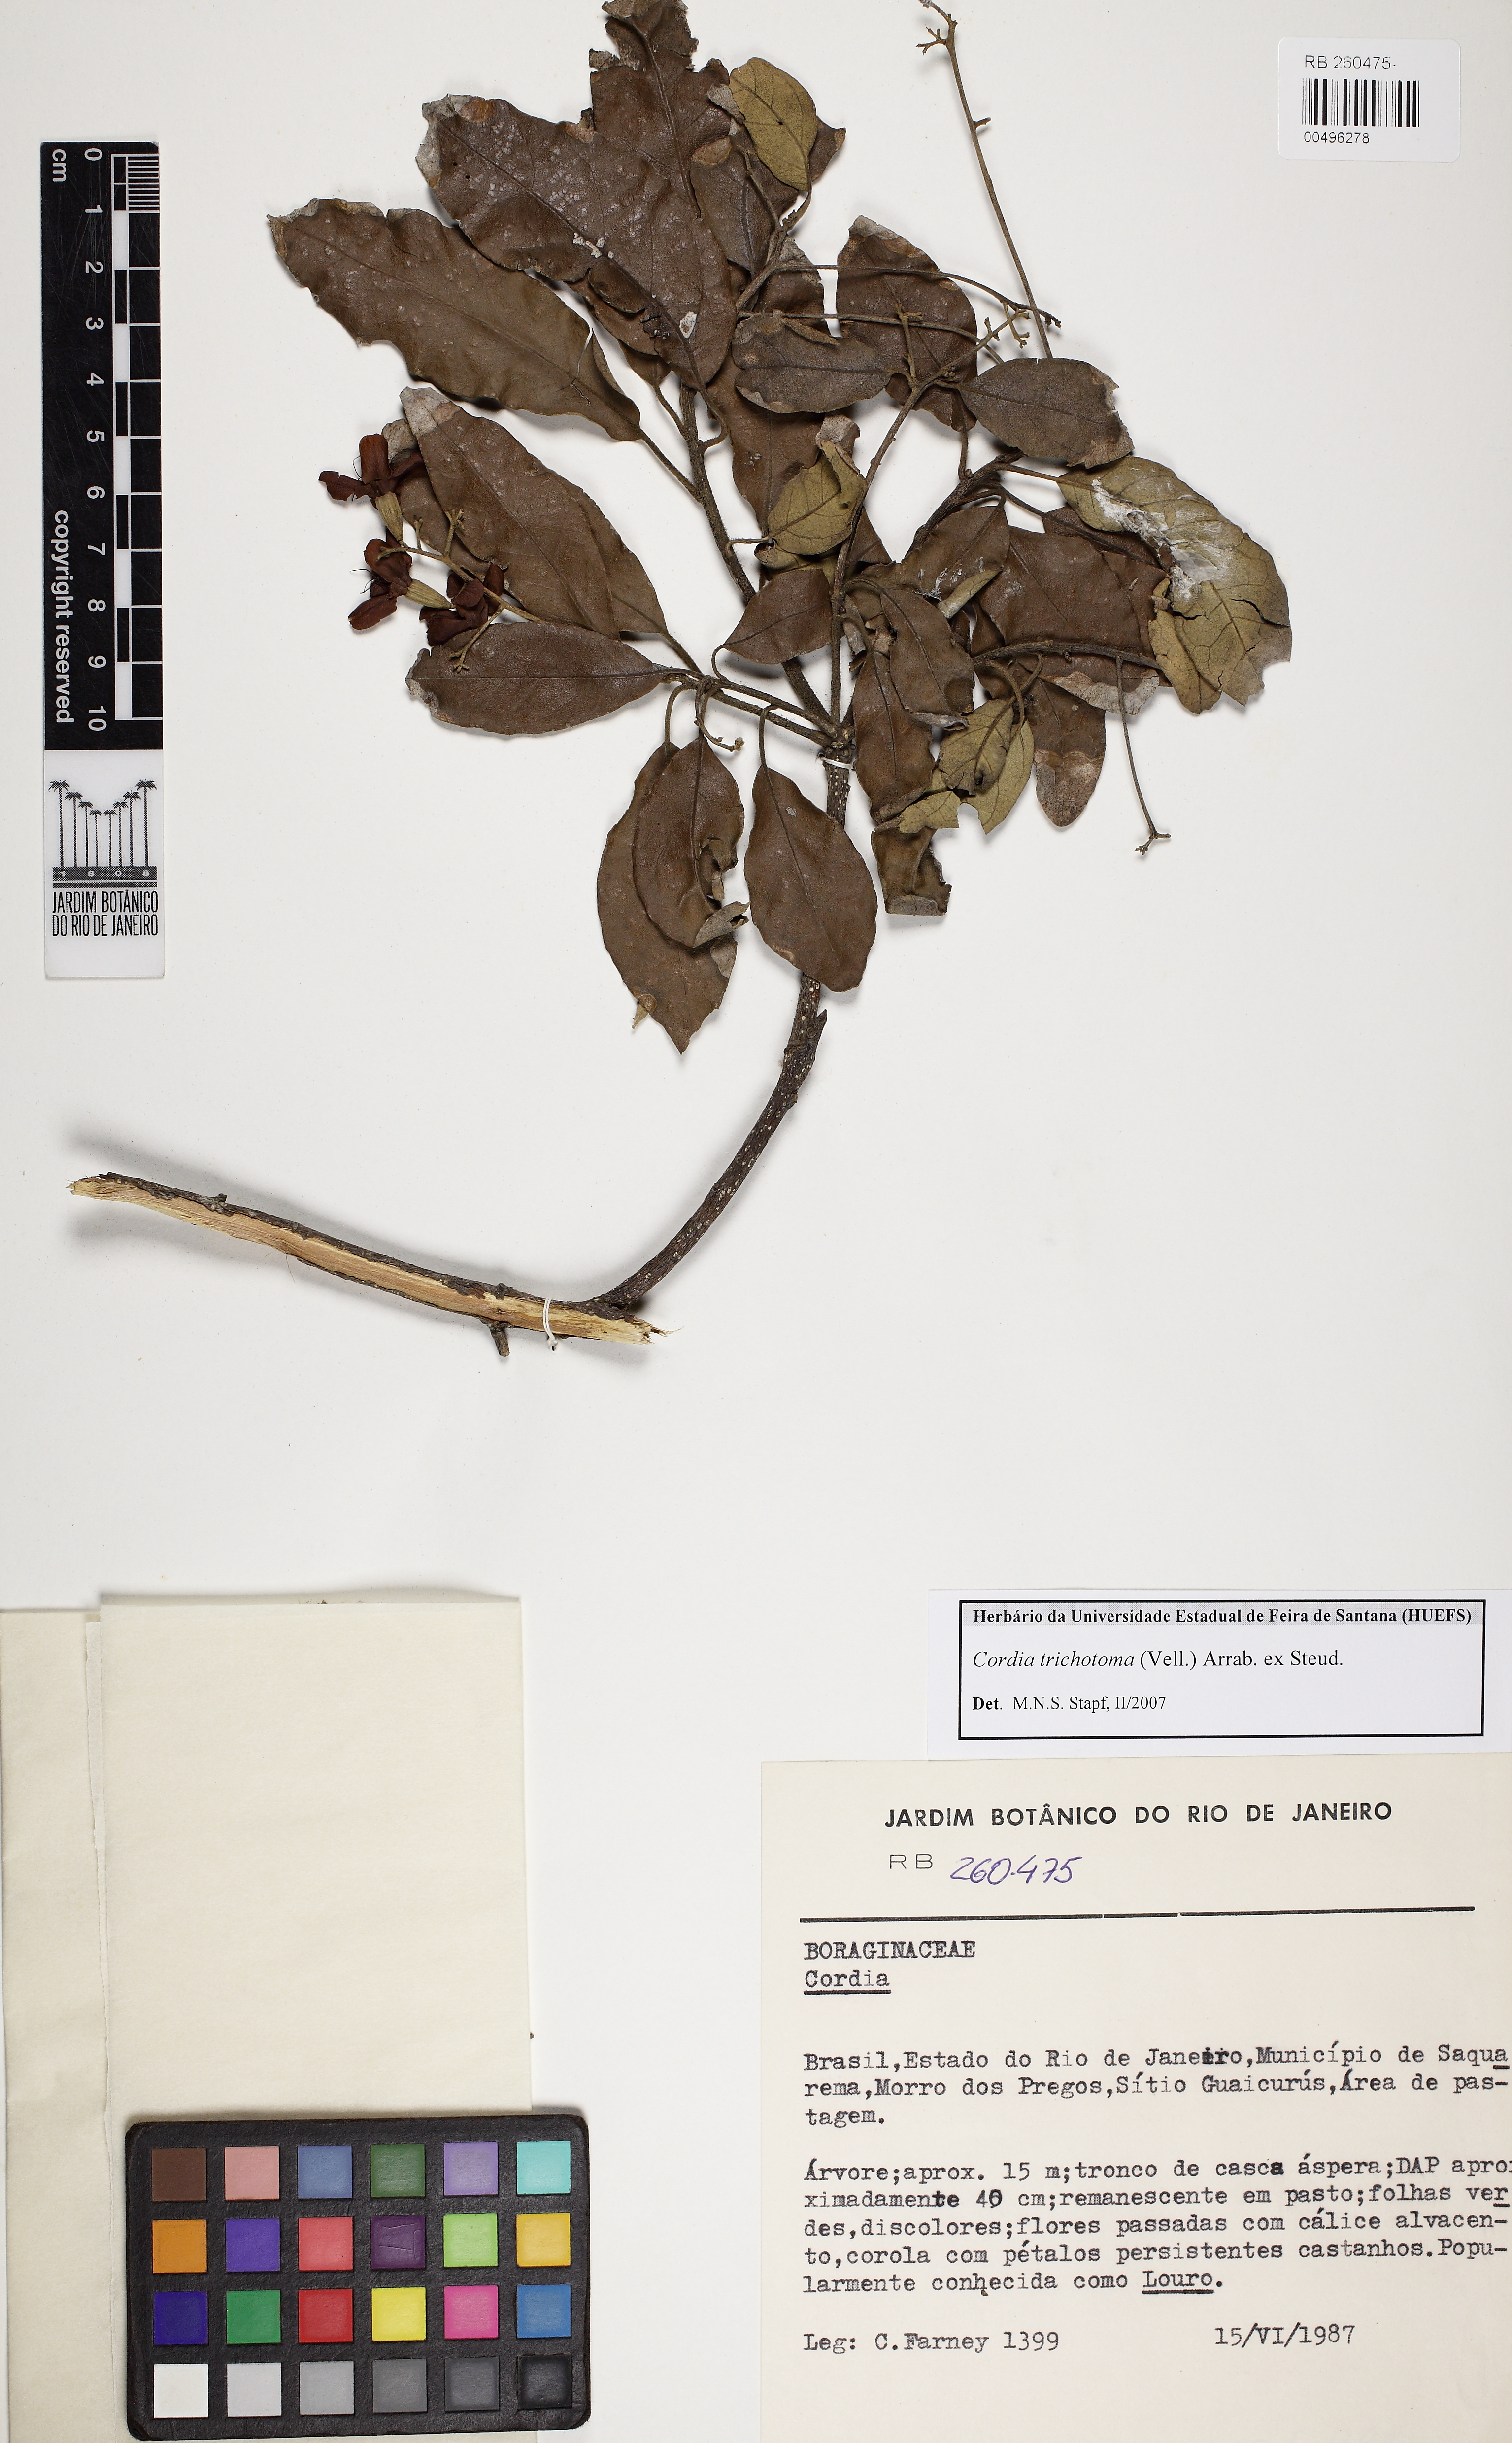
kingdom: Plantae
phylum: Tracheophyta
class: Magnoliopsida
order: Boraginales
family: Cordiaceae
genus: Cordia
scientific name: Cordia trichotoma
